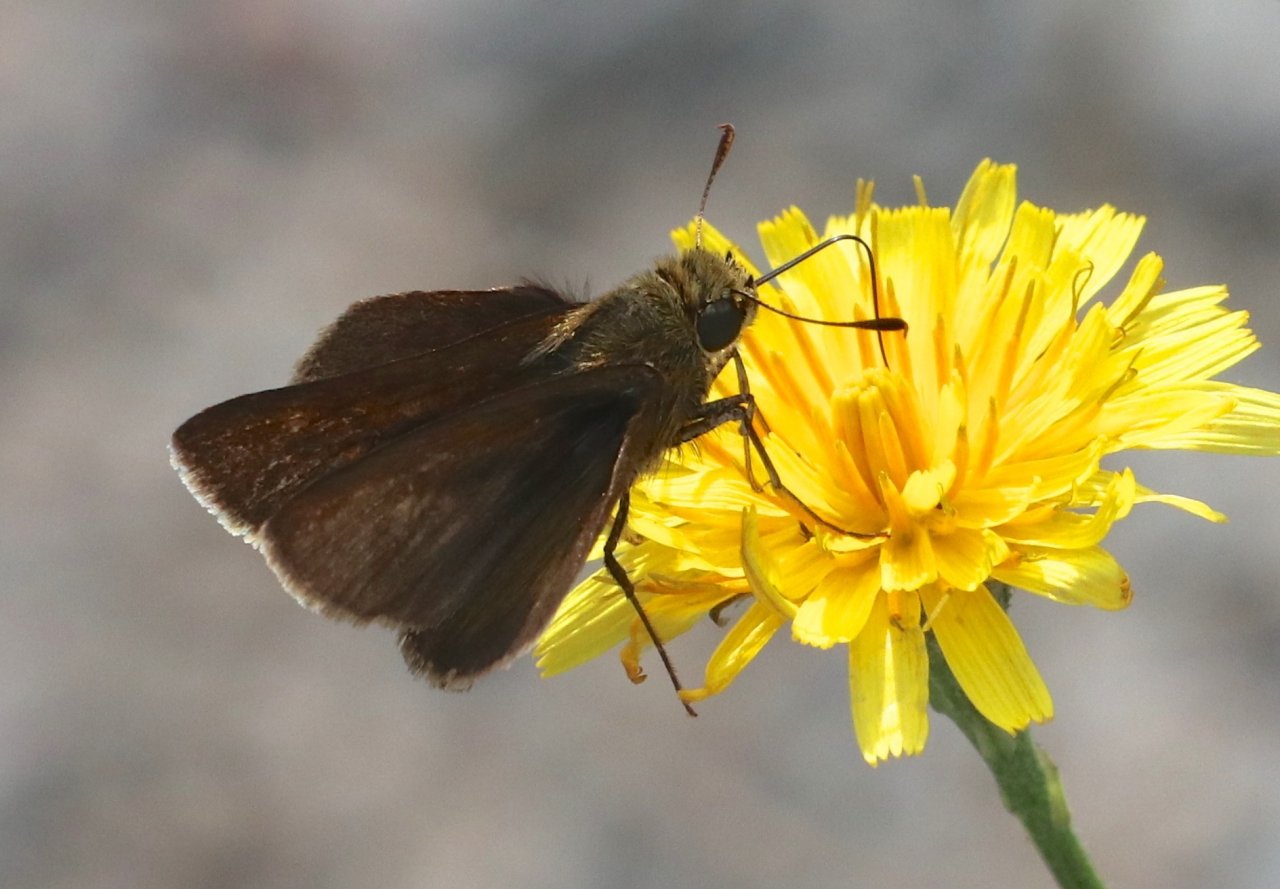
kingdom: Animalia
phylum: Arthropoda
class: Insecta
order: Lepidoptera
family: Hesperiidae
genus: Euphyes
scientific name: Euphyes vestris
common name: Dun Skipper
